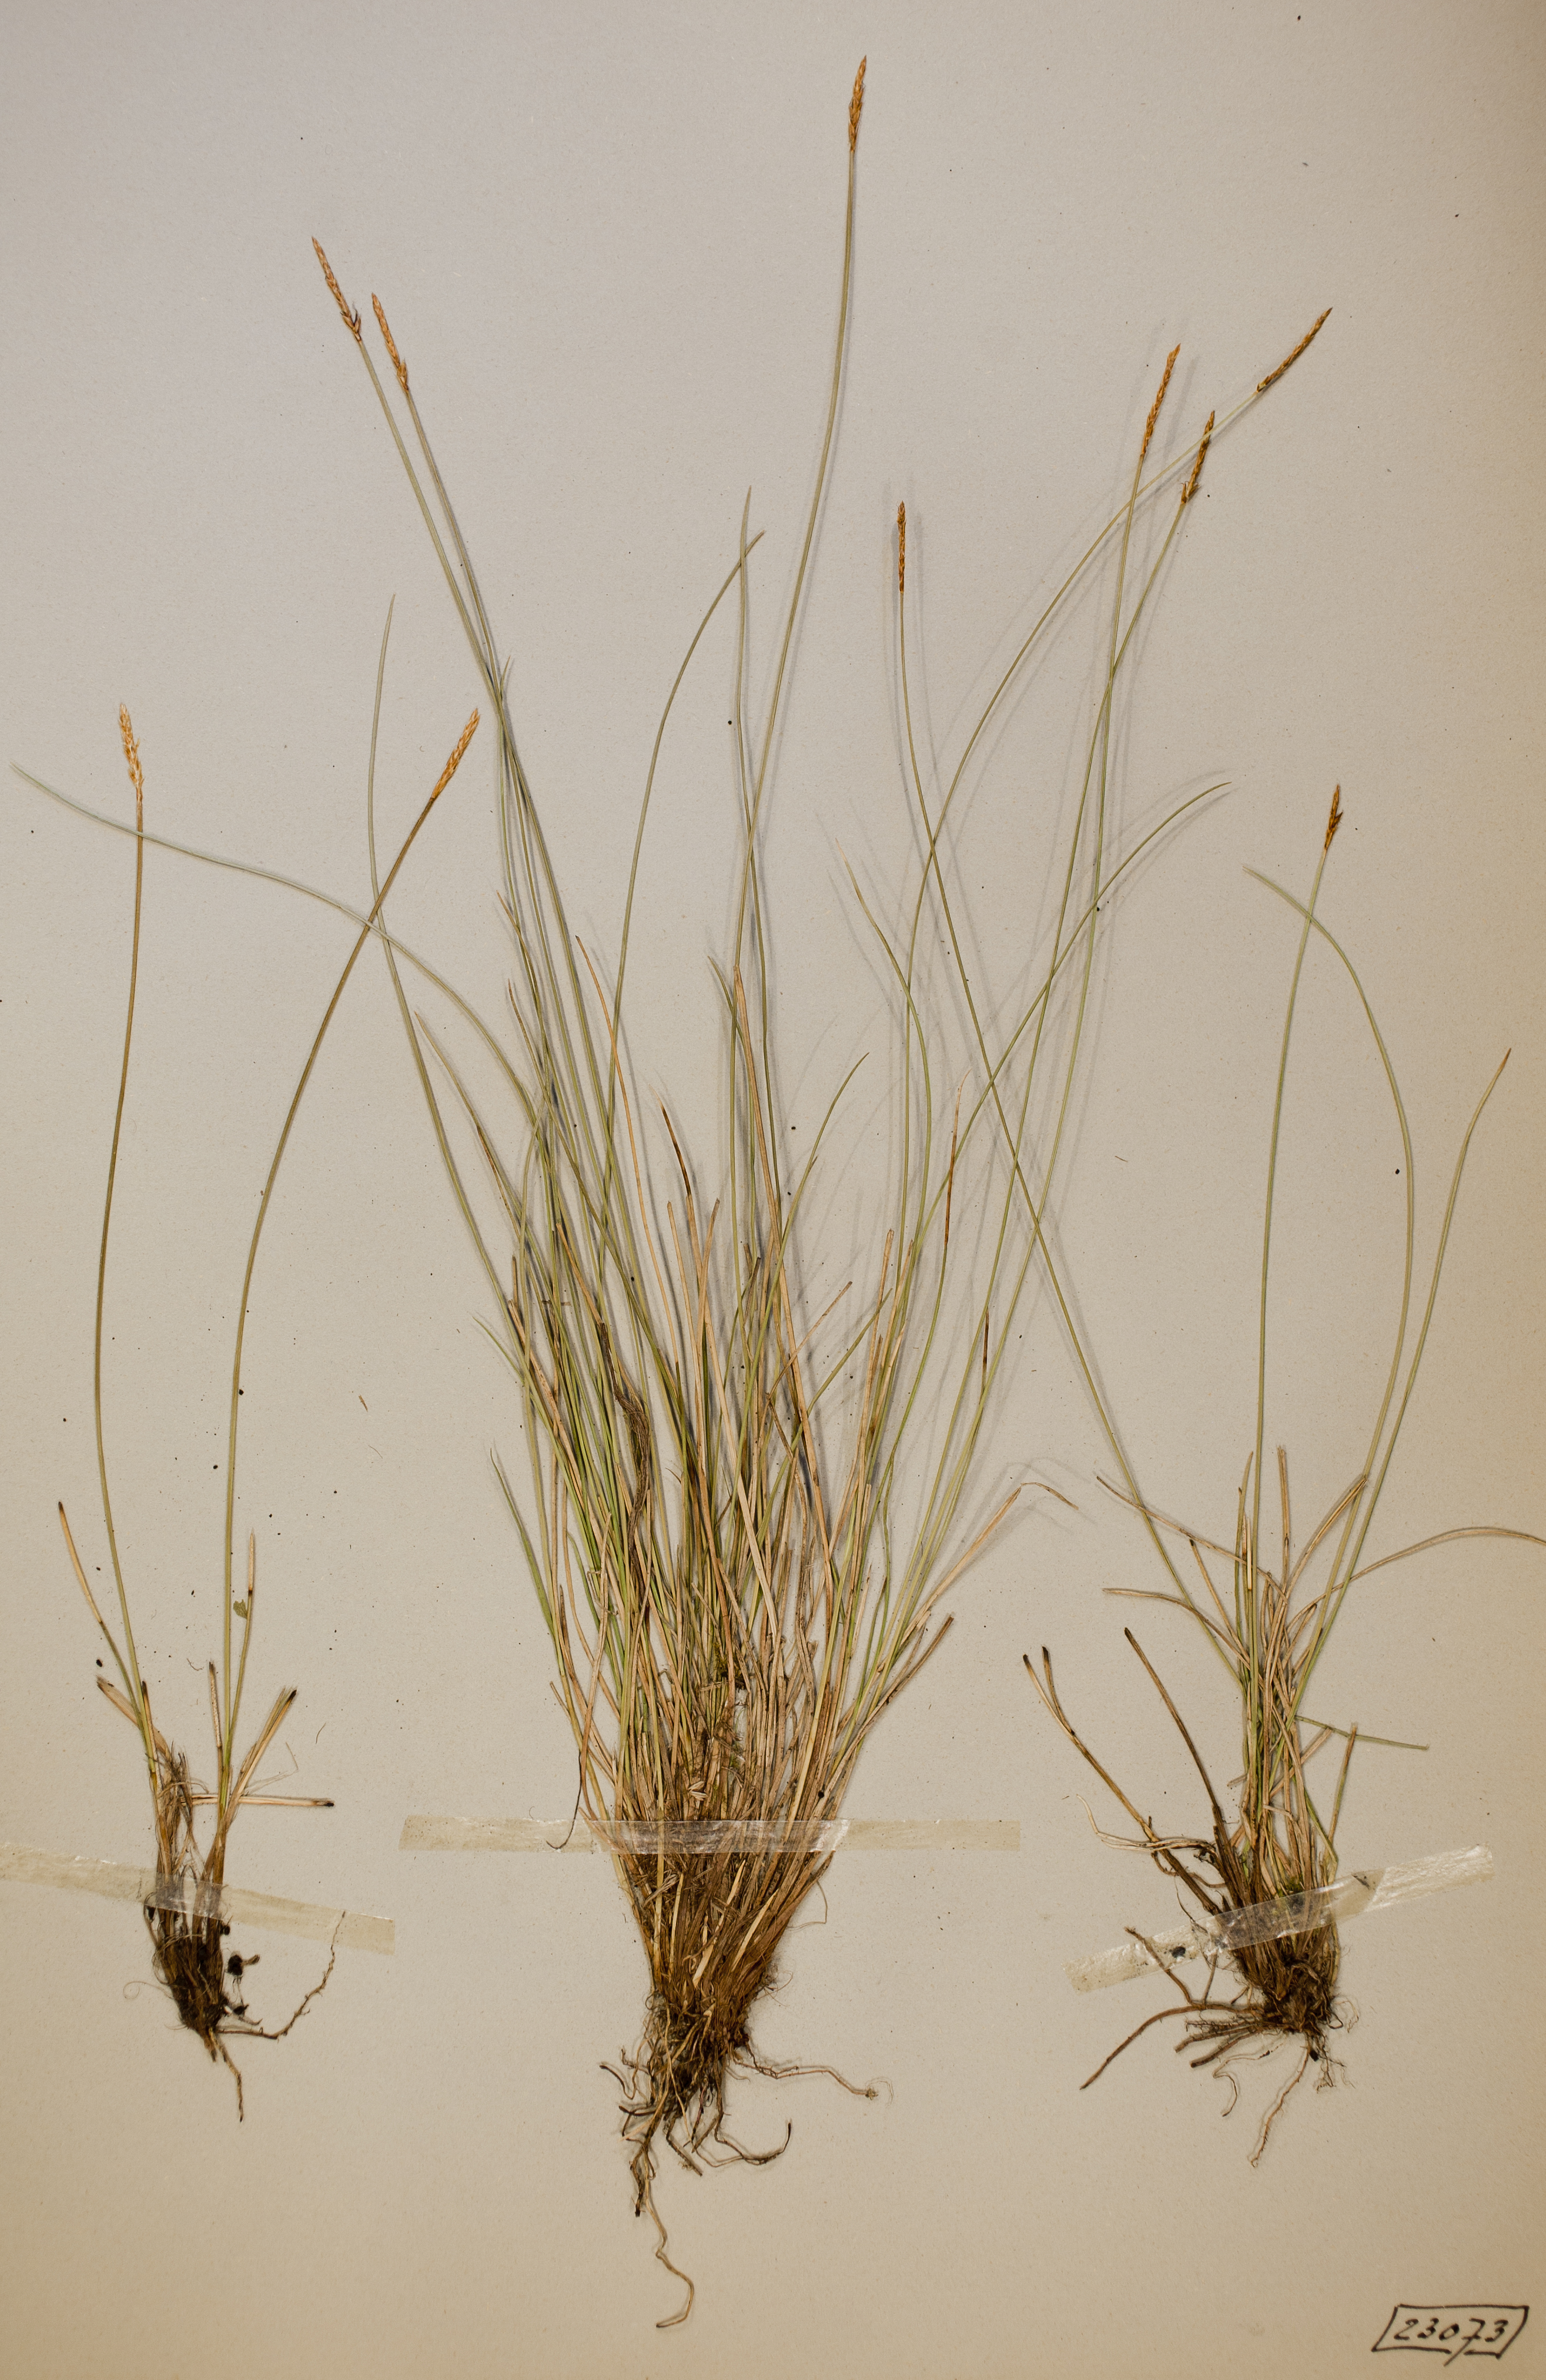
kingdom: Plantae
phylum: Tracheophyta
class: Liliopsida
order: Poales
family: Cyperaceae
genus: Carex
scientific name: Carex davalliana
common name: Davall's sedge
